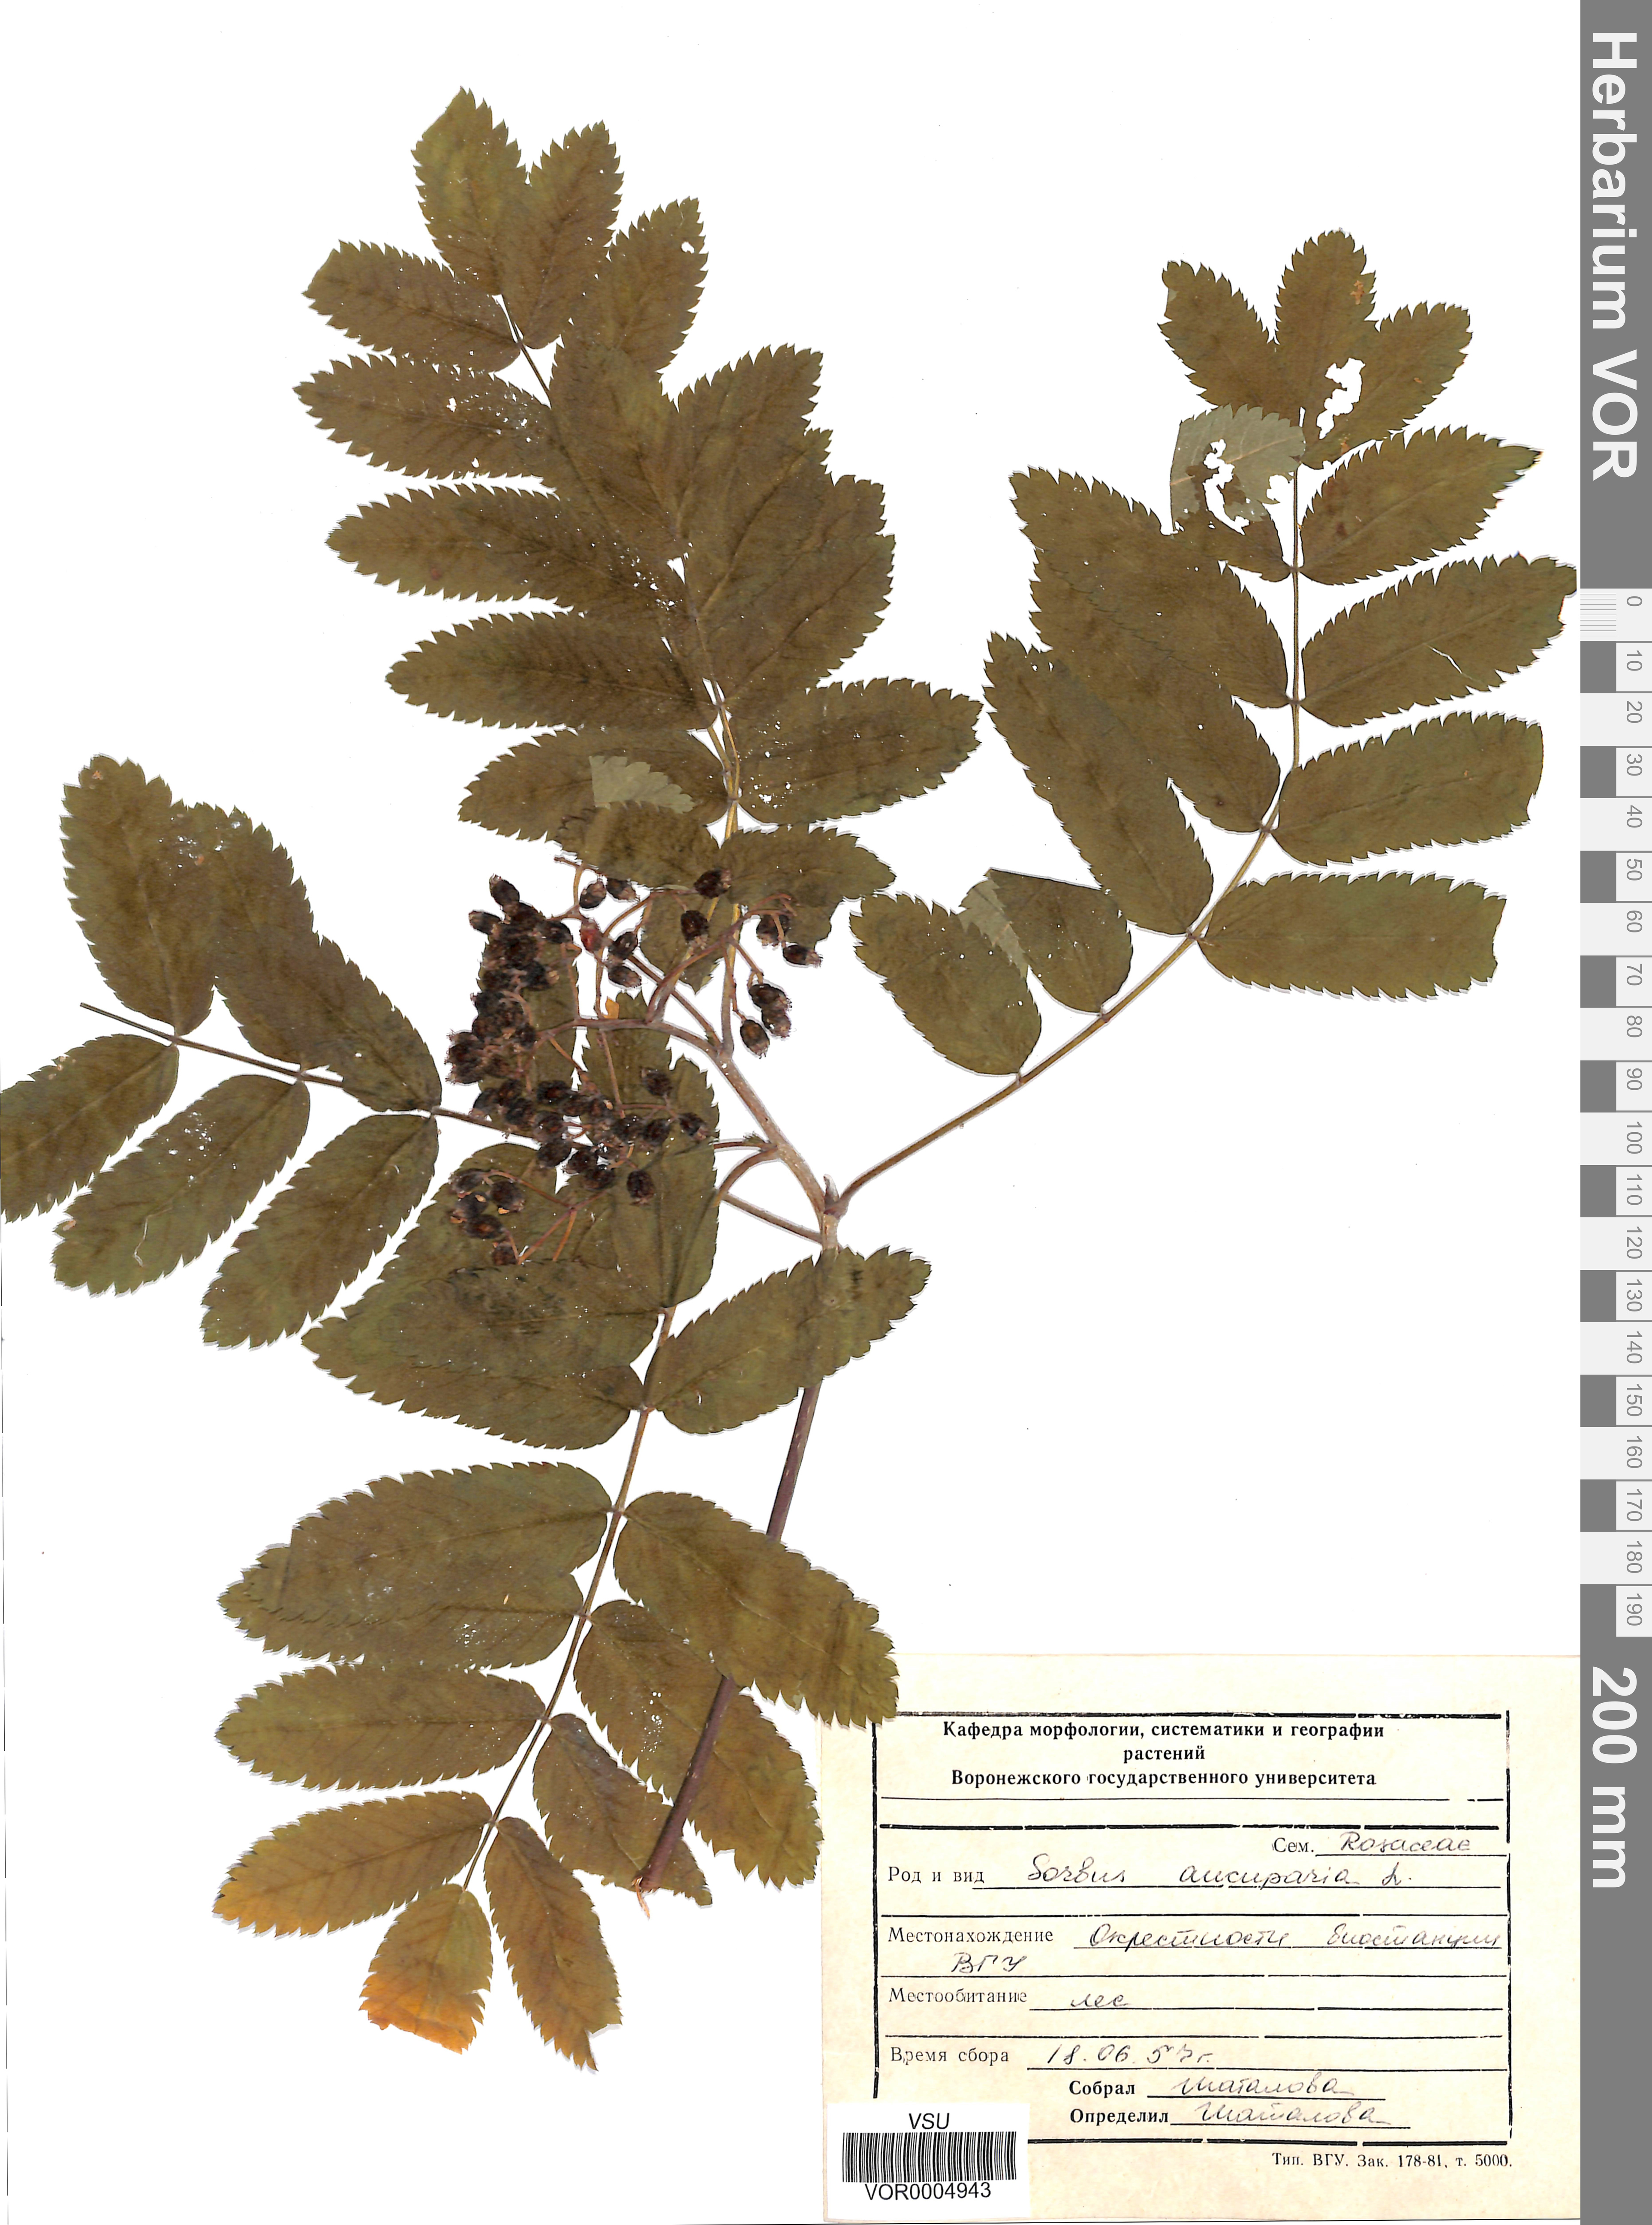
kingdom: Plantae
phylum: Tracheophyta
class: Magnoliopsida
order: Rosales
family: Rosaceae
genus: Sorbus
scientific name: Sorbus aucuparia
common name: Rowan
